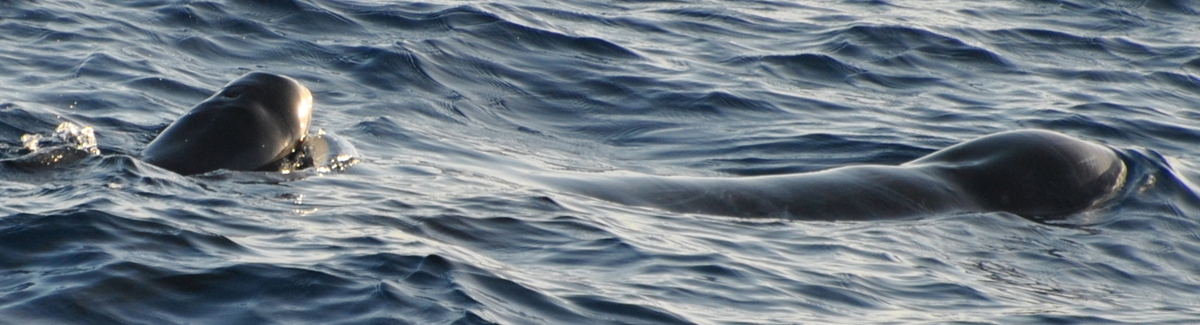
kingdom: Animalia
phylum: Chordata
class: Mammalia
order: Cetacea
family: Delphinidae
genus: Pseudorca
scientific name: Pseudorca crassidens
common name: False Killer Whale
